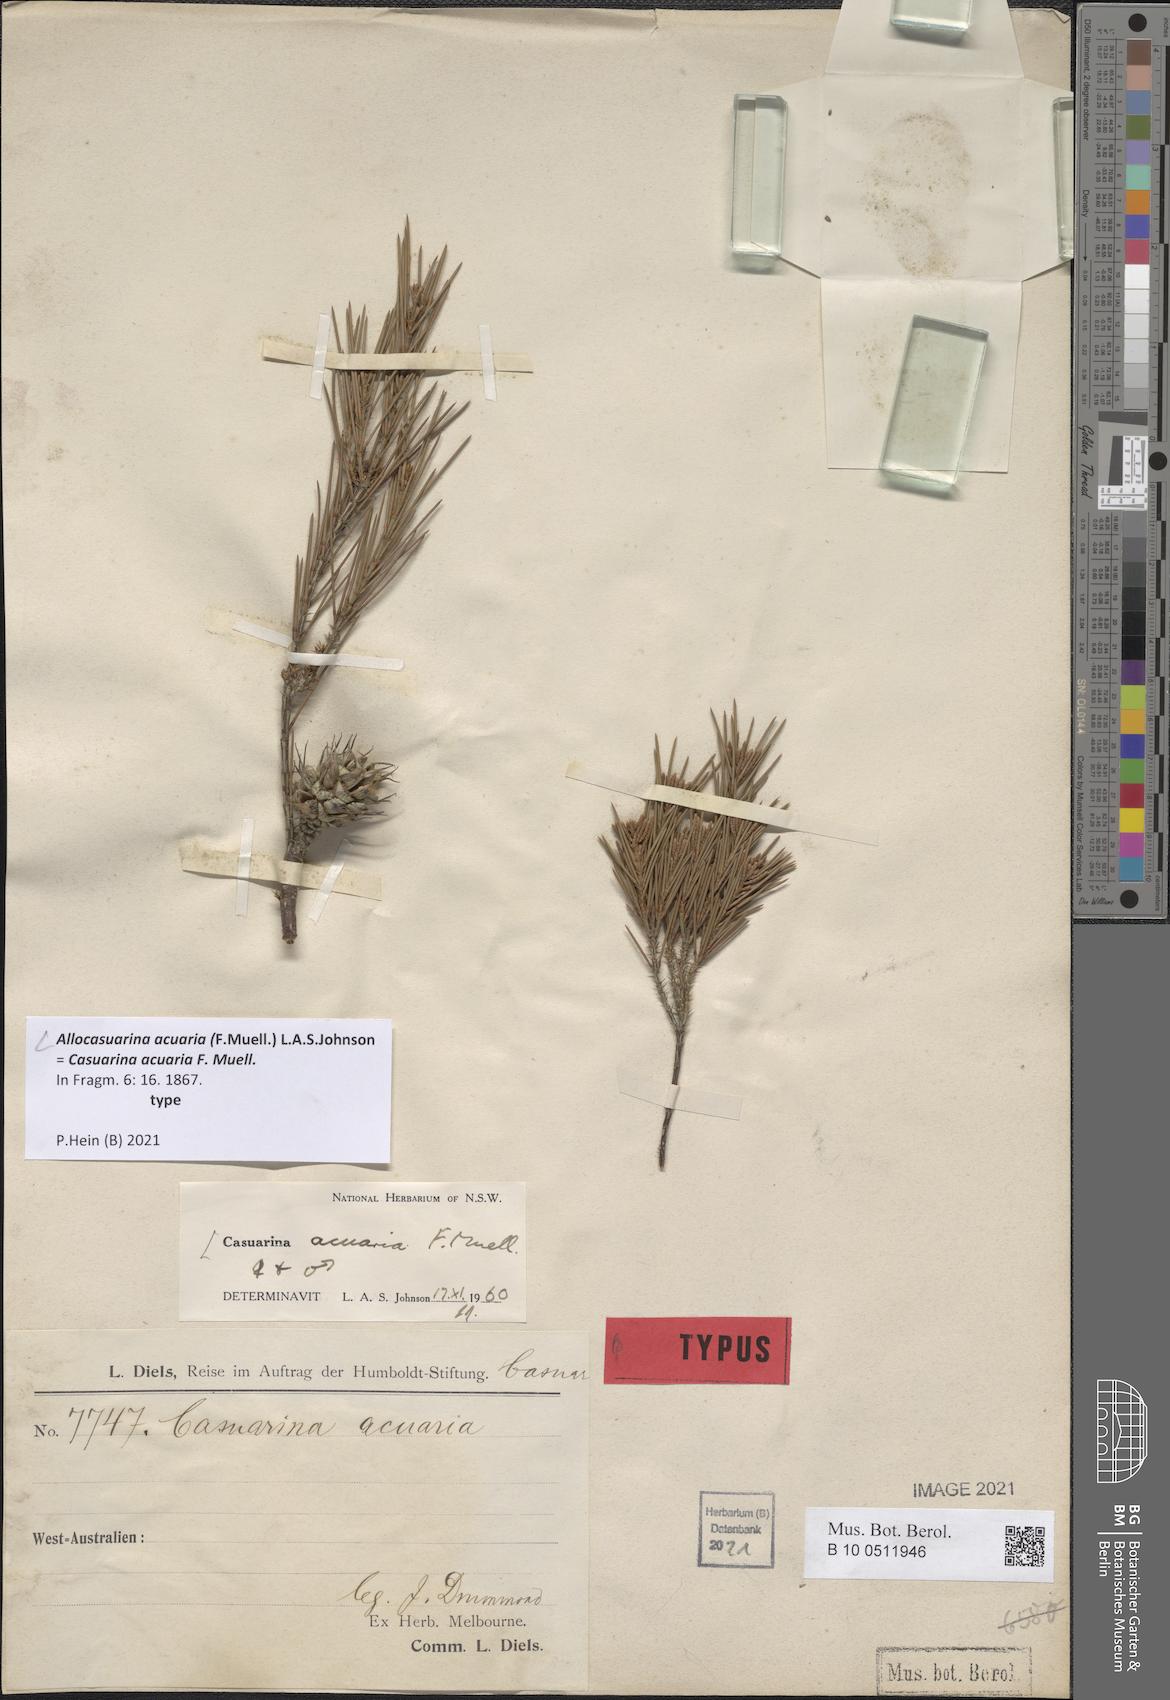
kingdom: Plantae
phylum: Tracheophyta
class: Magnoliopsida
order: Fagales
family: Casuarinaceae
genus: Allocasuarina
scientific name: Allocasuarina acuaria
